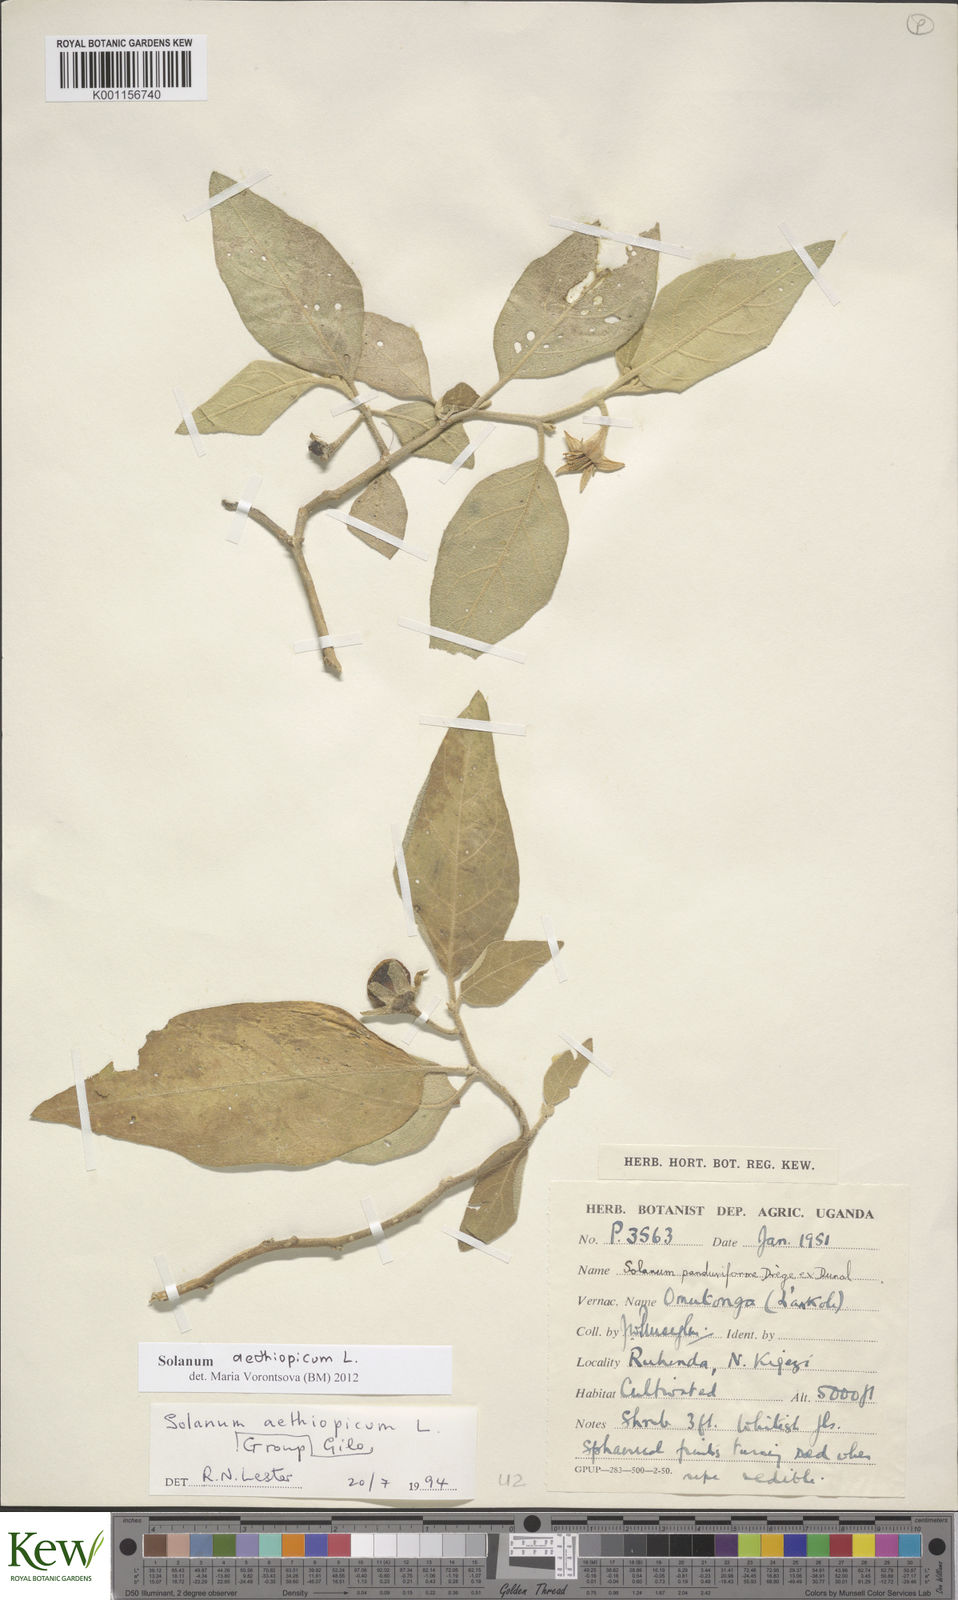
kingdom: Plantae
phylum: Tracheophyta
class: Magnoliopsida
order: Solanales
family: Solanaceae
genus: Solanum
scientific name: Solanum aethiopicum
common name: Gilo
